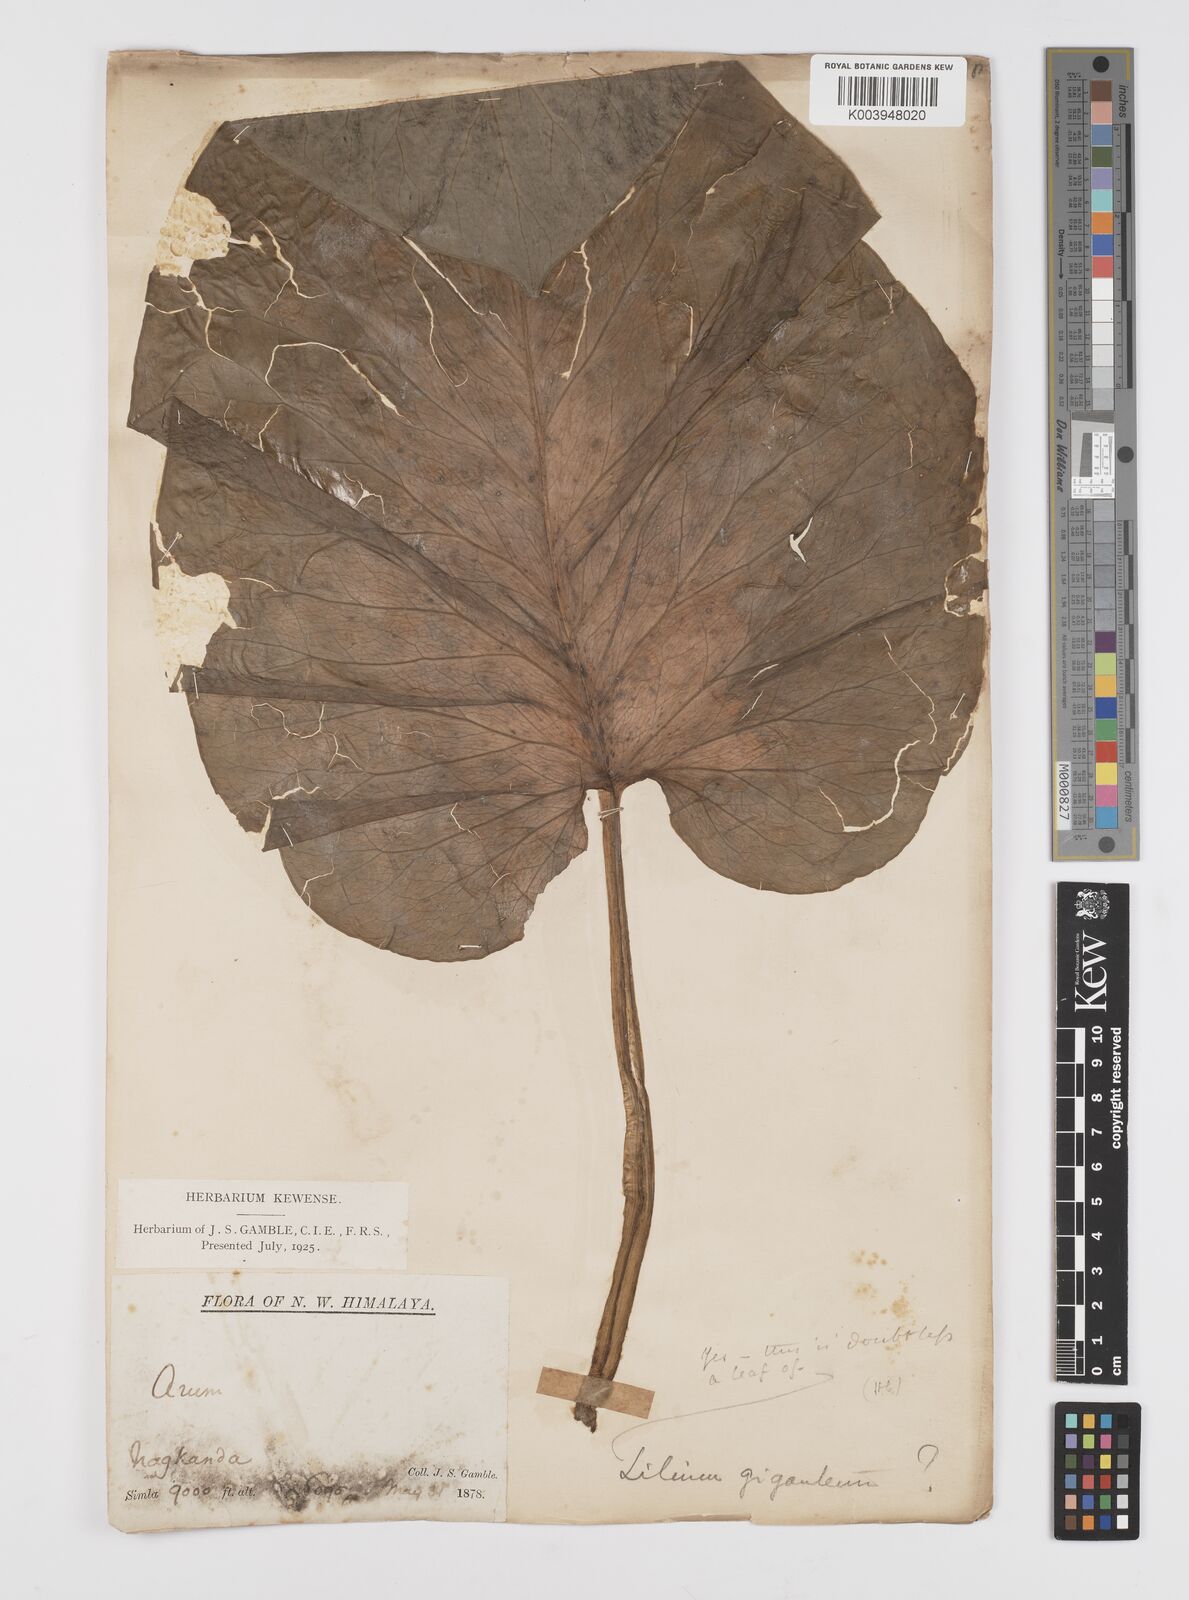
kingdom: Plantae
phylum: Tracheophyta
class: Liliopsida
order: Liliales
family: Liliaceae
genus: Cardiocrinum
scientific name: Cardiocrinum giganteum
